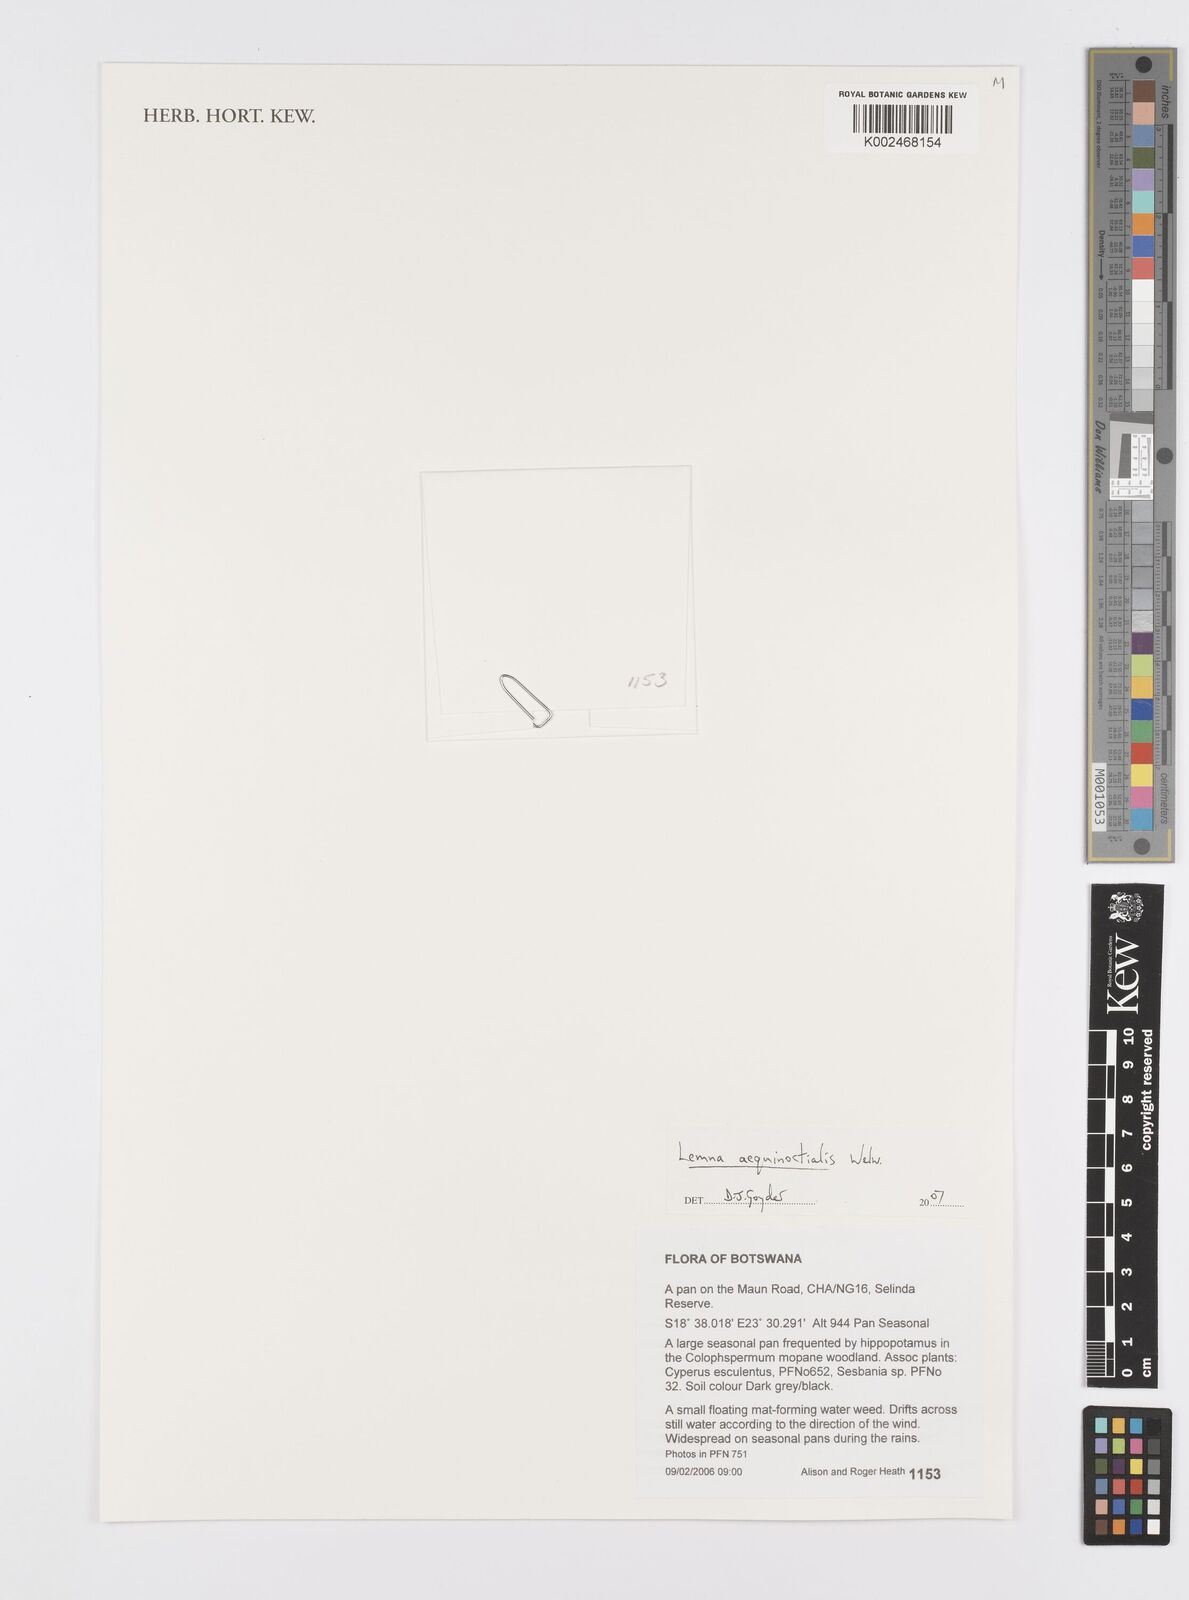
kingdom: Plantae
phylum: Tracheophyta
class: Liliopsida
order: Alismatales
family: Araceae
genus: Lemna
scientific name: Lemna aequinoctialis
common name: Duckweed
